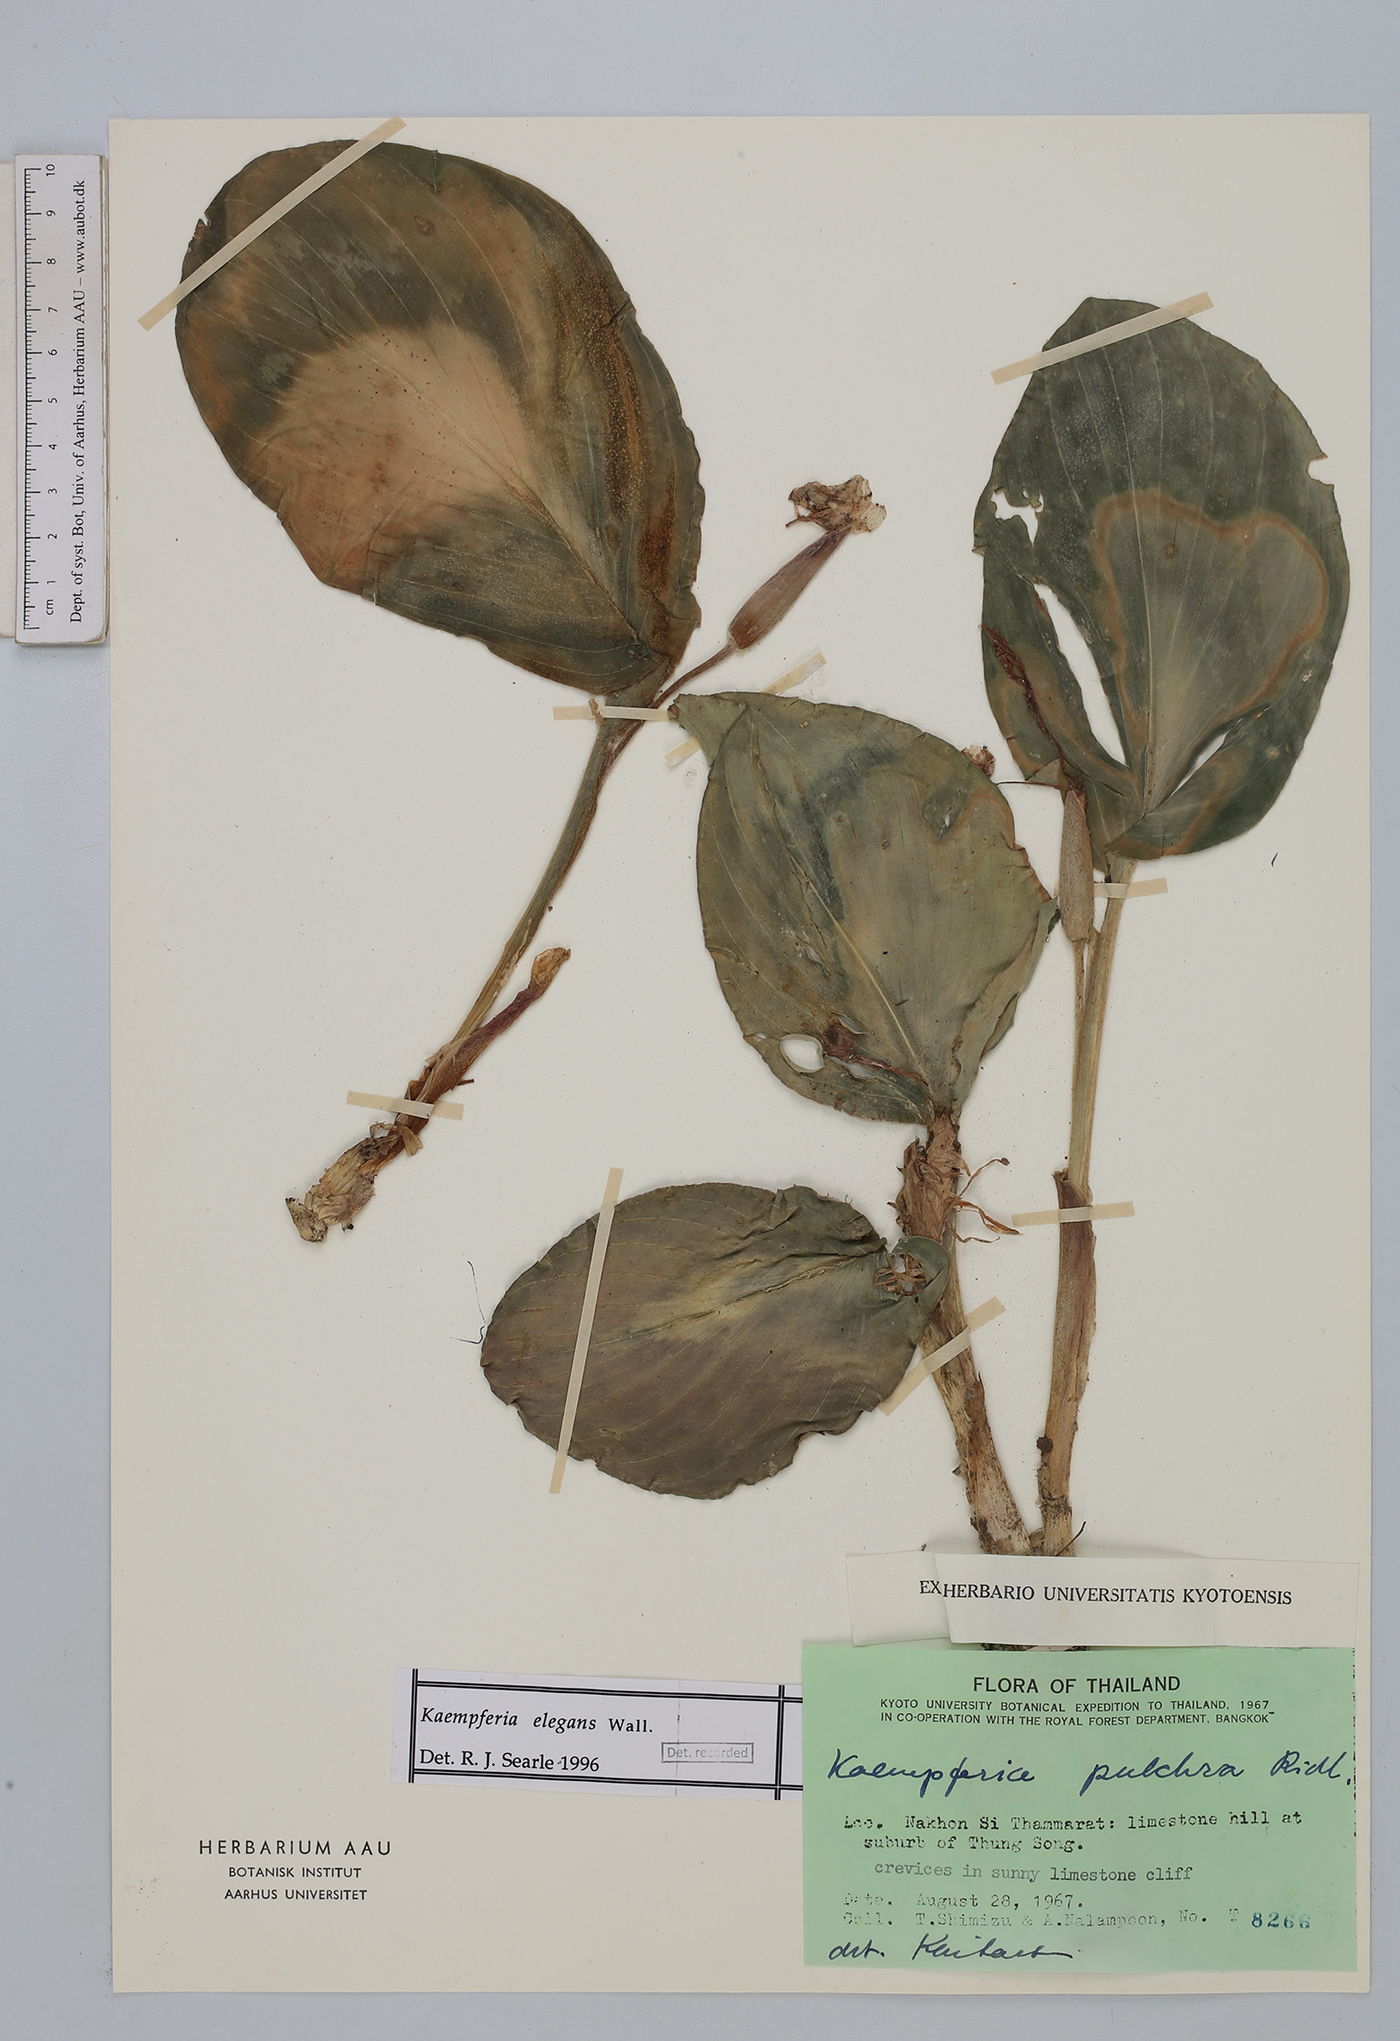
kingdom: Plantae
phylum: Tracheophyta
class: Liliopsida
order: Zingiberales
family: Zingiberaceae
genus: Kaempferia
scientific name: Kaempferia elegans
